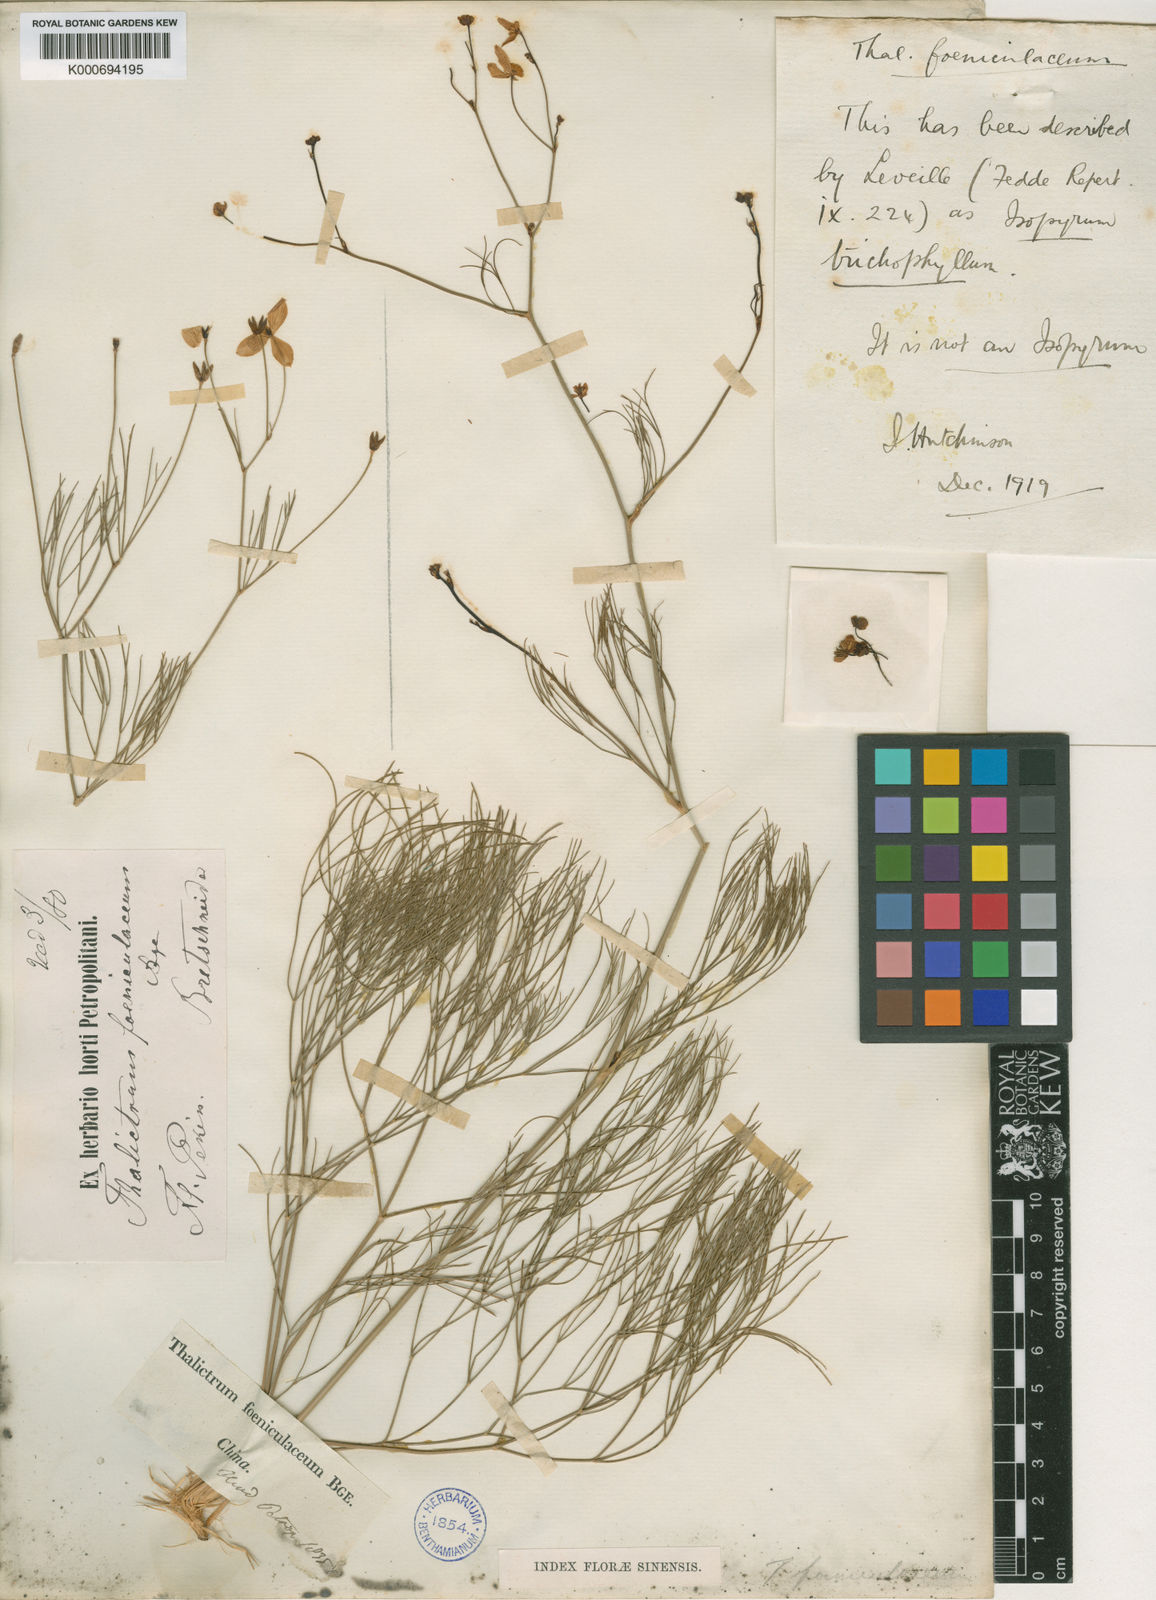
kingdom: Plantae
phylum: Tracheophyta
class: Magnoliopsida
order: Ranunculales
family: Ranunculaceae
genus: Thalictrum
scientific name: Thalictrum foeniculaceum
